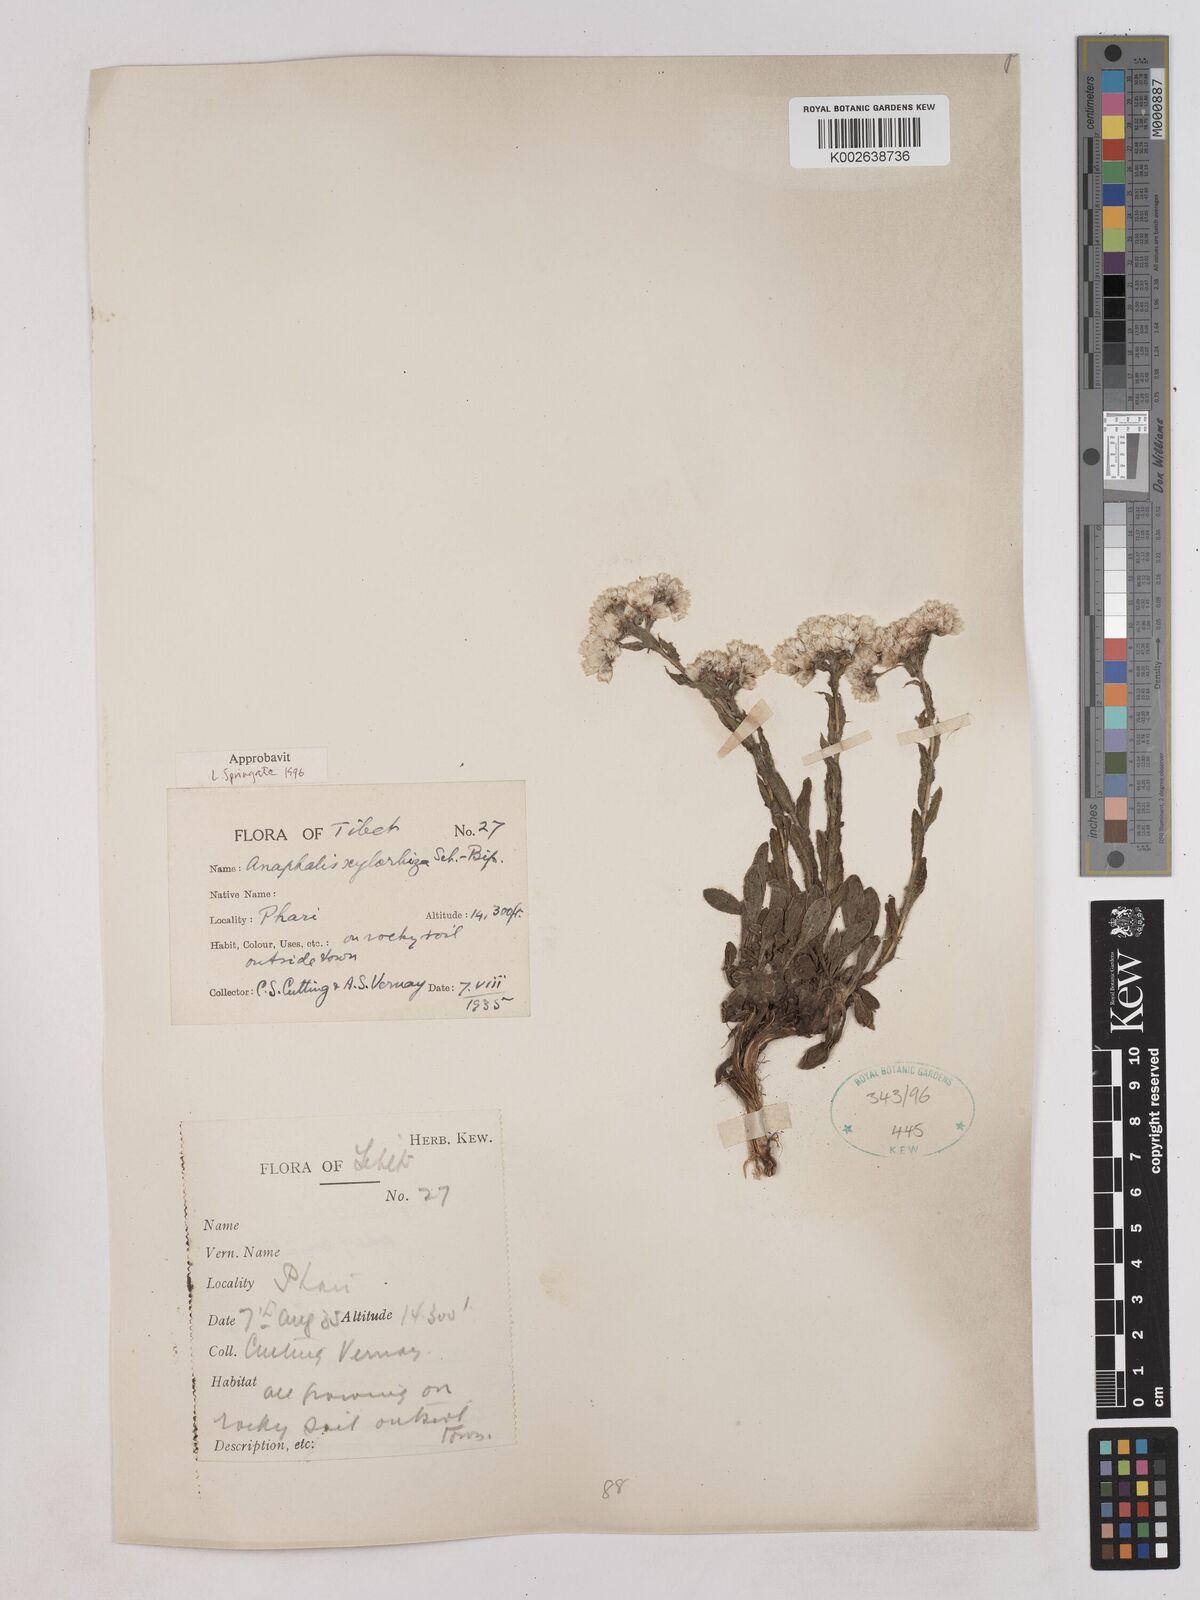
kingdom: Plantae
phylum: Tracheophyta
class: Magnoliopsida
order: Asterales
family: Asteraceae
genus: Anaphalis
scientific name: Anaphalis xylorhiza
